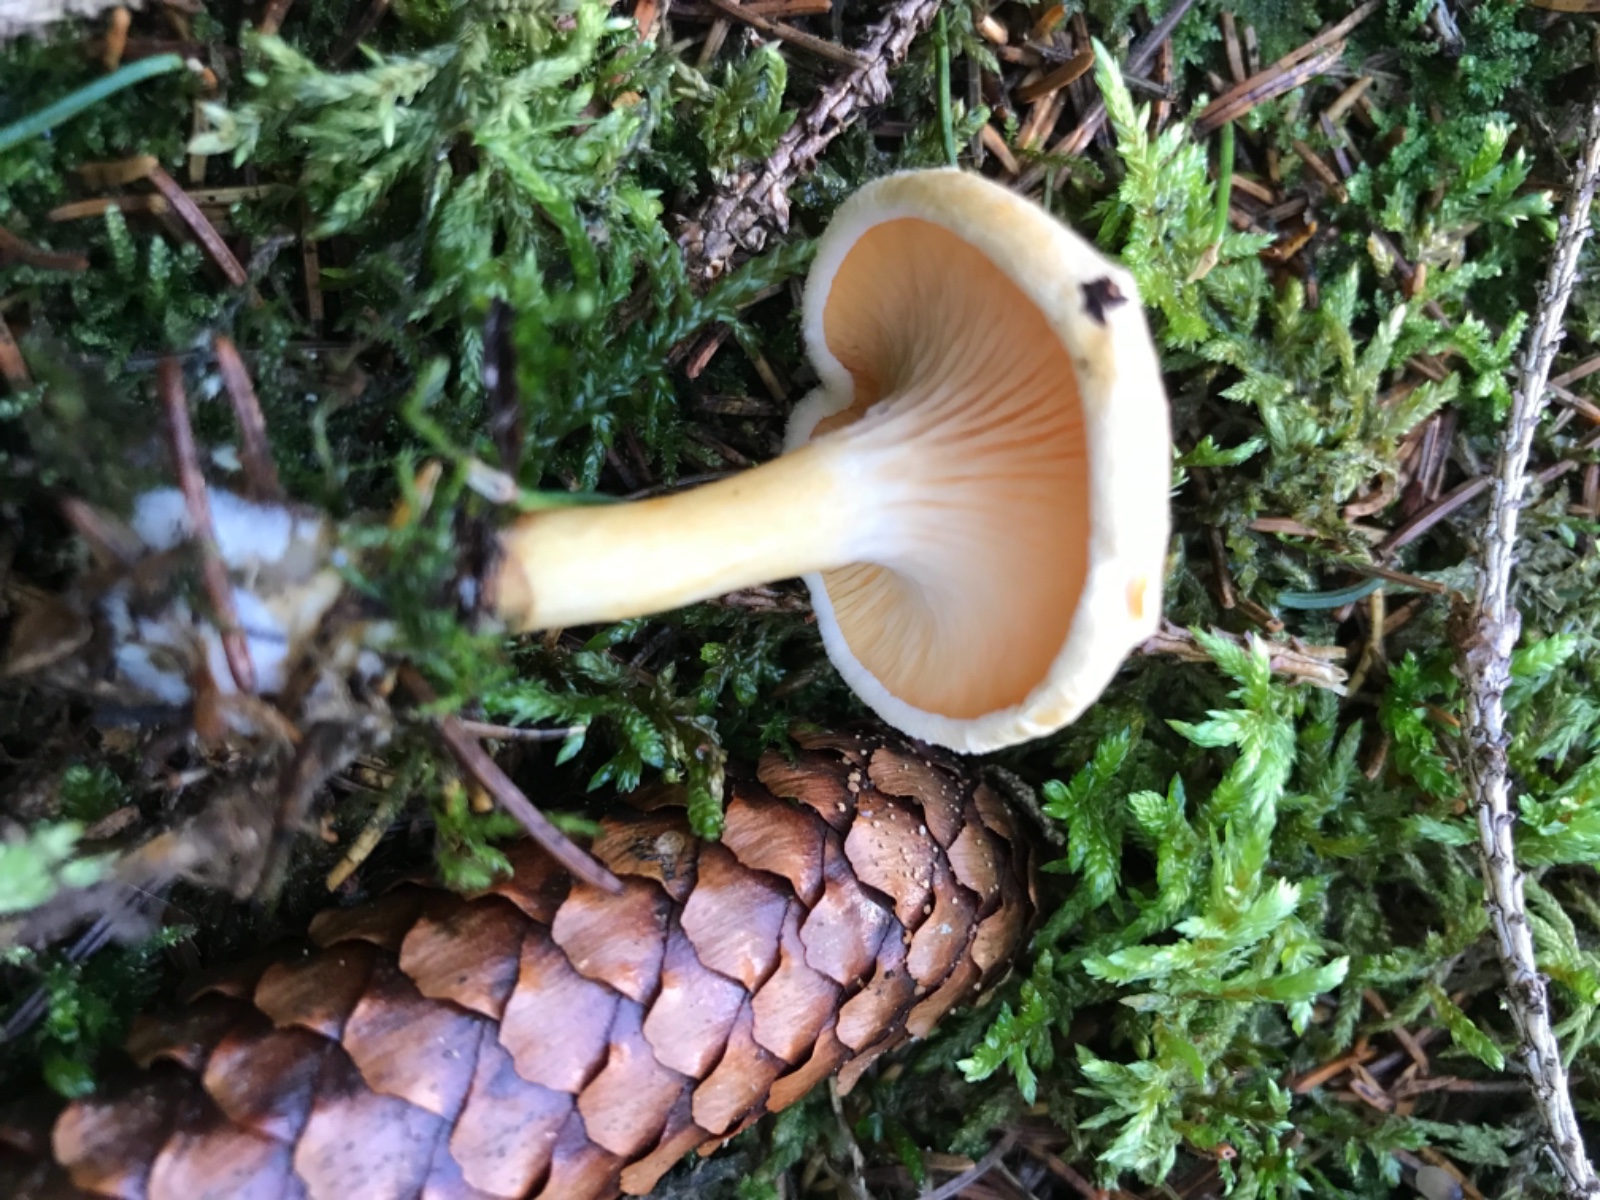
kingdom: Fungi
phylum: Basidiomycota
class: Agaricomycetes
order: Boletales
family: Hygrophoropsidaceae
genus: Hygrophoropsis
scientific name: Hygrophoropsis aurantiaca
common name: almindelig orangekantarel
